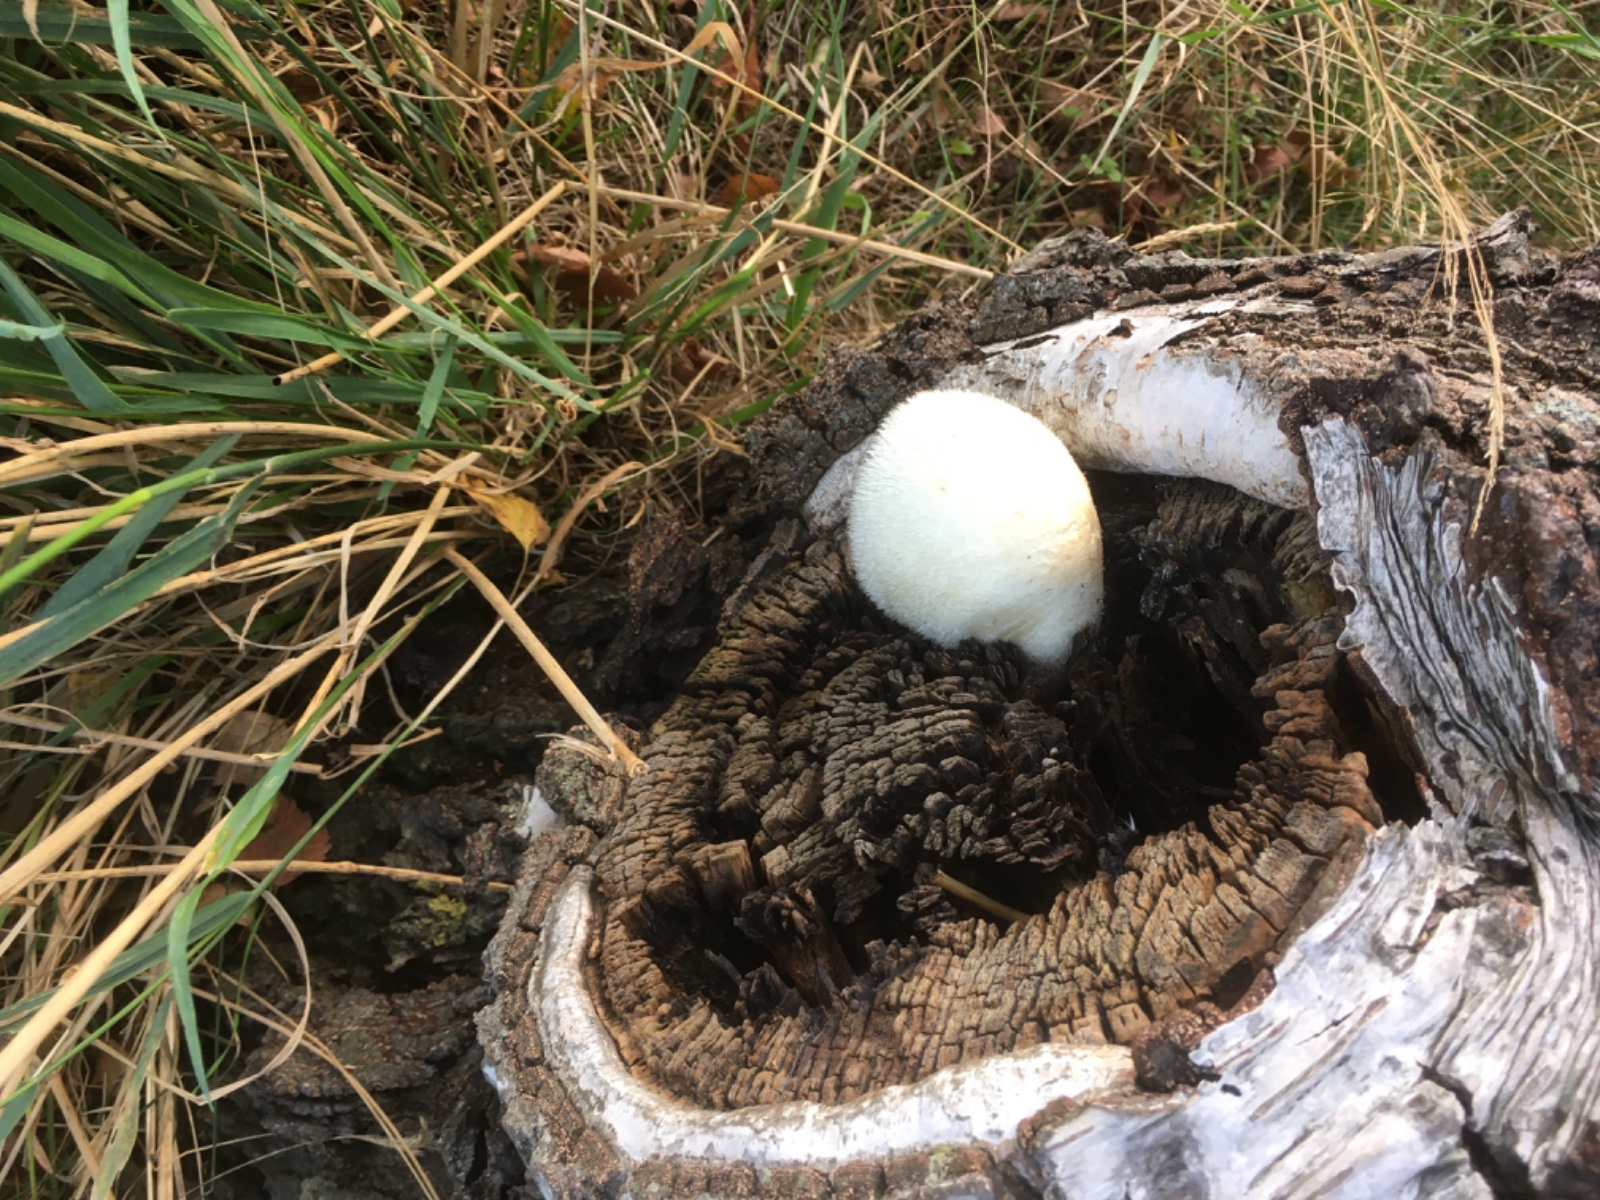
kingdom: Fungi
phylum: Basidiomycota
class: Agaricomycetes
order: Agaricales
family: Pluteaceae
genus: Volvariella
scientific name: Volvariella bombycina
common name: silkehåret posesvamp
